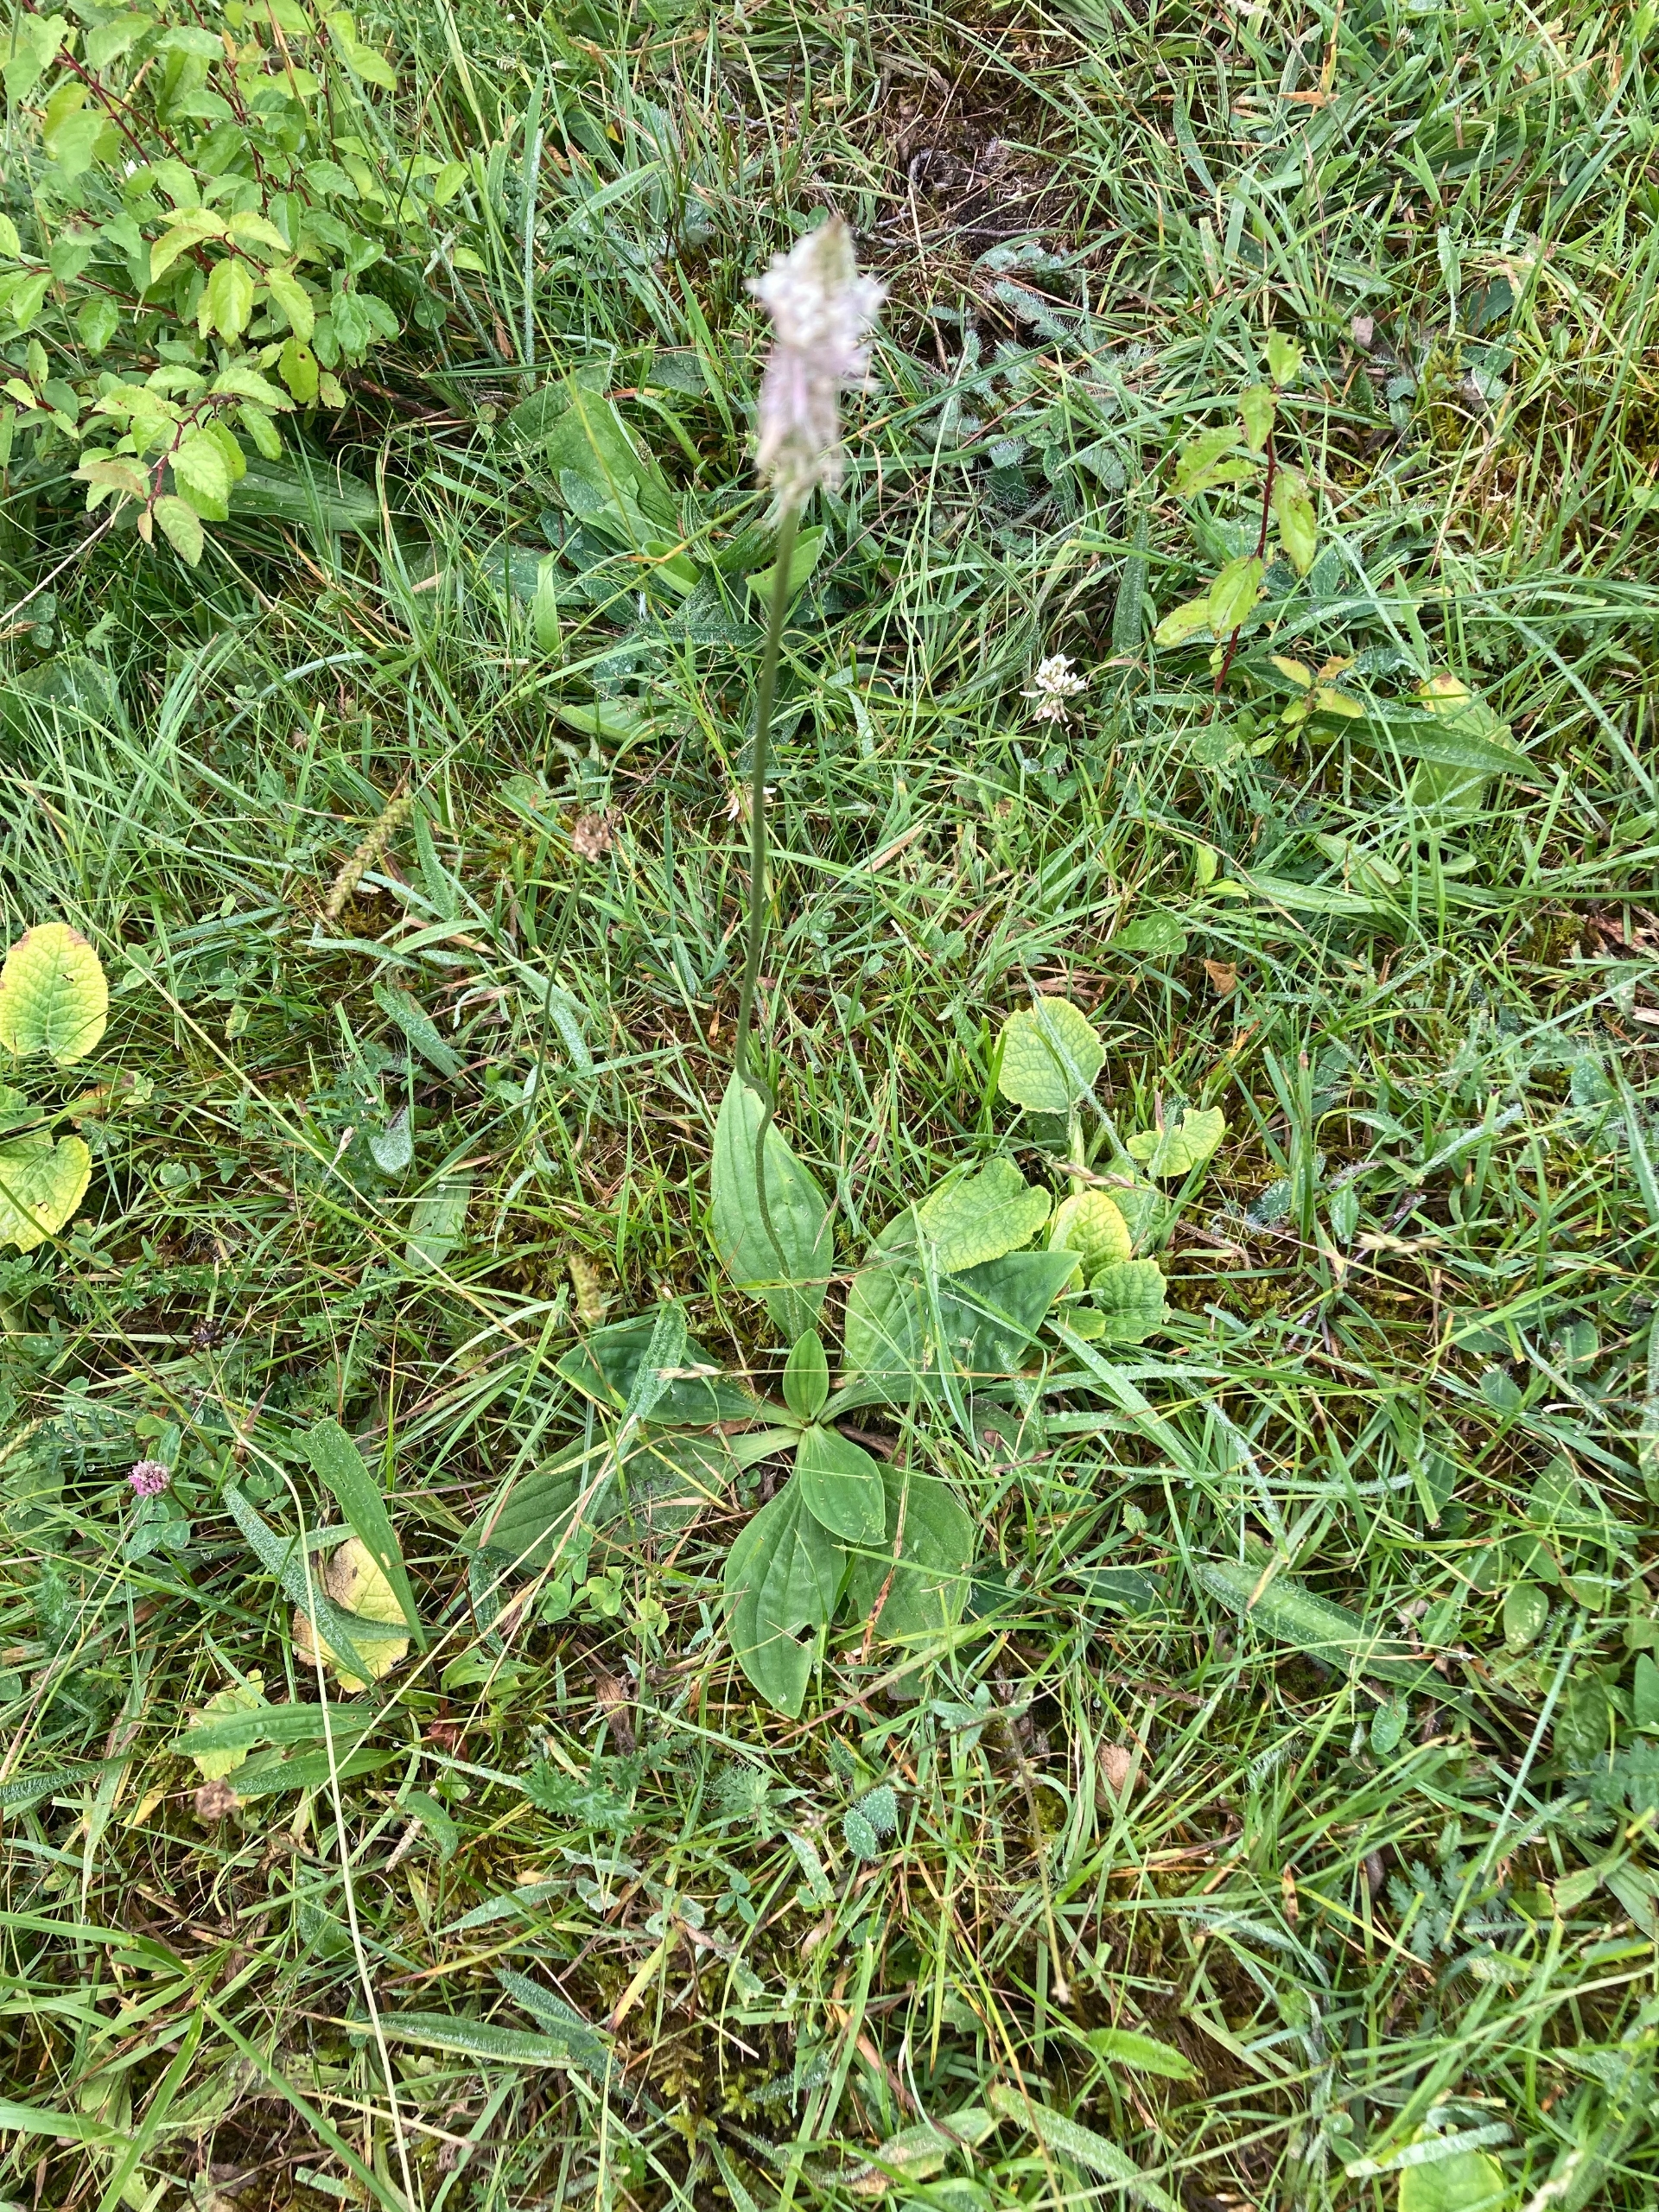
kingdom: Plantae
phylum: Tracheophyta
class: Magnoliopsida
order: Lamiales
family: Plantaginaceae
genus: Plantago
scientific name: Plantago media
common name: Dunet vejbred
